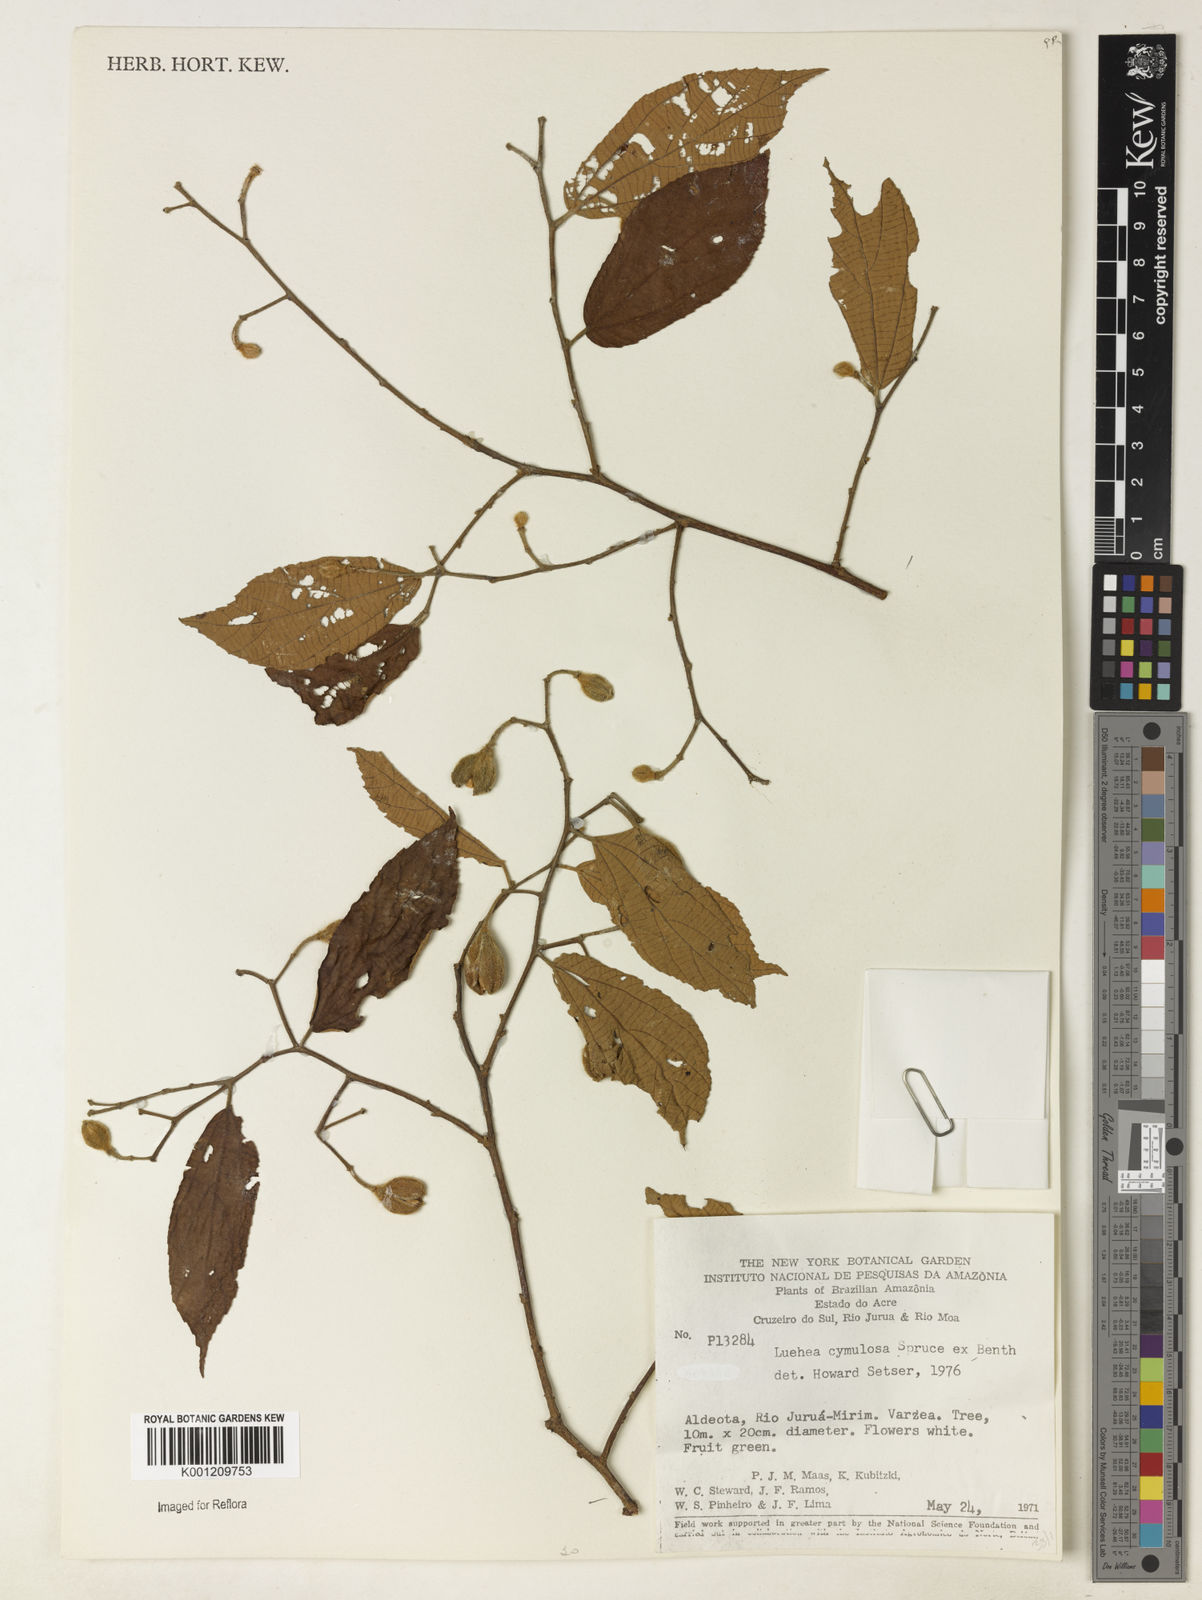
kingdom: Plantae
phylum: Tracheophyta
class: Magnoliopsida
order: Malvales
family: Malvaceae
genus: Luehea
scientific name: Luehea cymulosa
